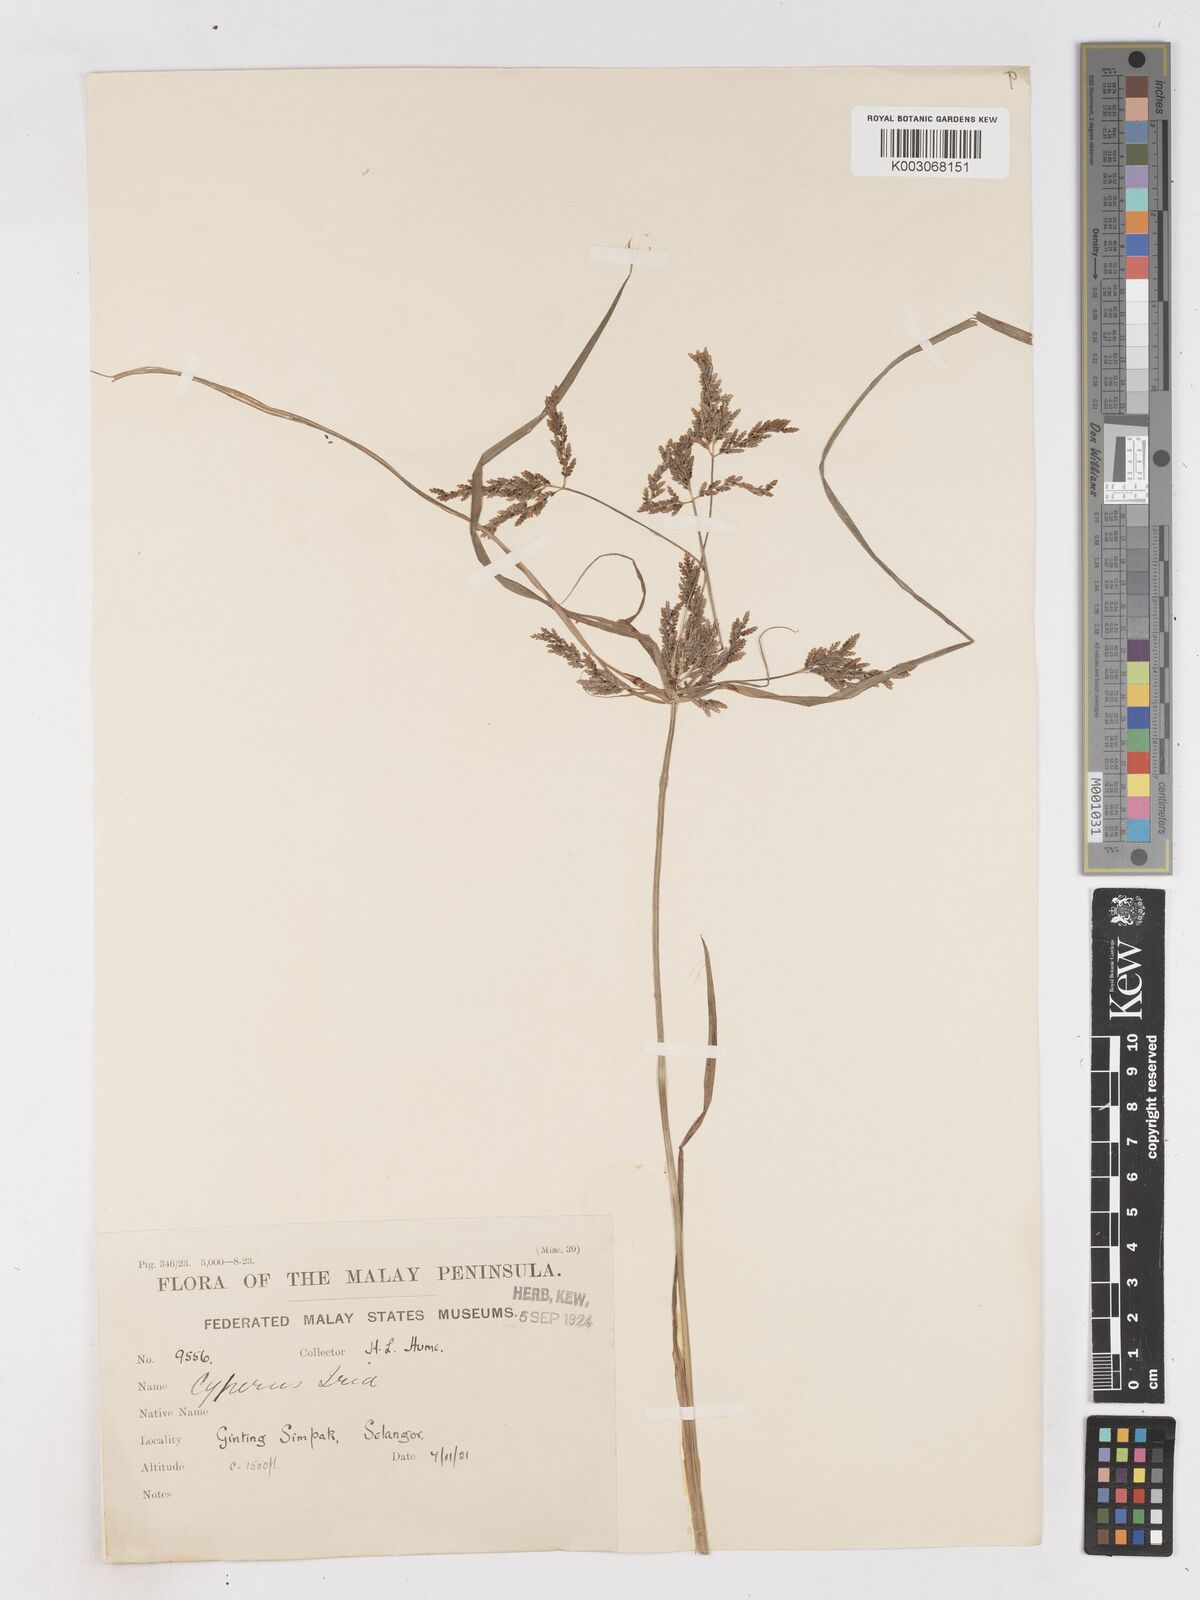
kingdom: Plantae
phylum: Tracheophyta
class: Liliopsida
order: Poales
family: Cyperaceae
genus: Cyperus
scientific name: Cyperus iria
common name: Ricefield flatsedge
